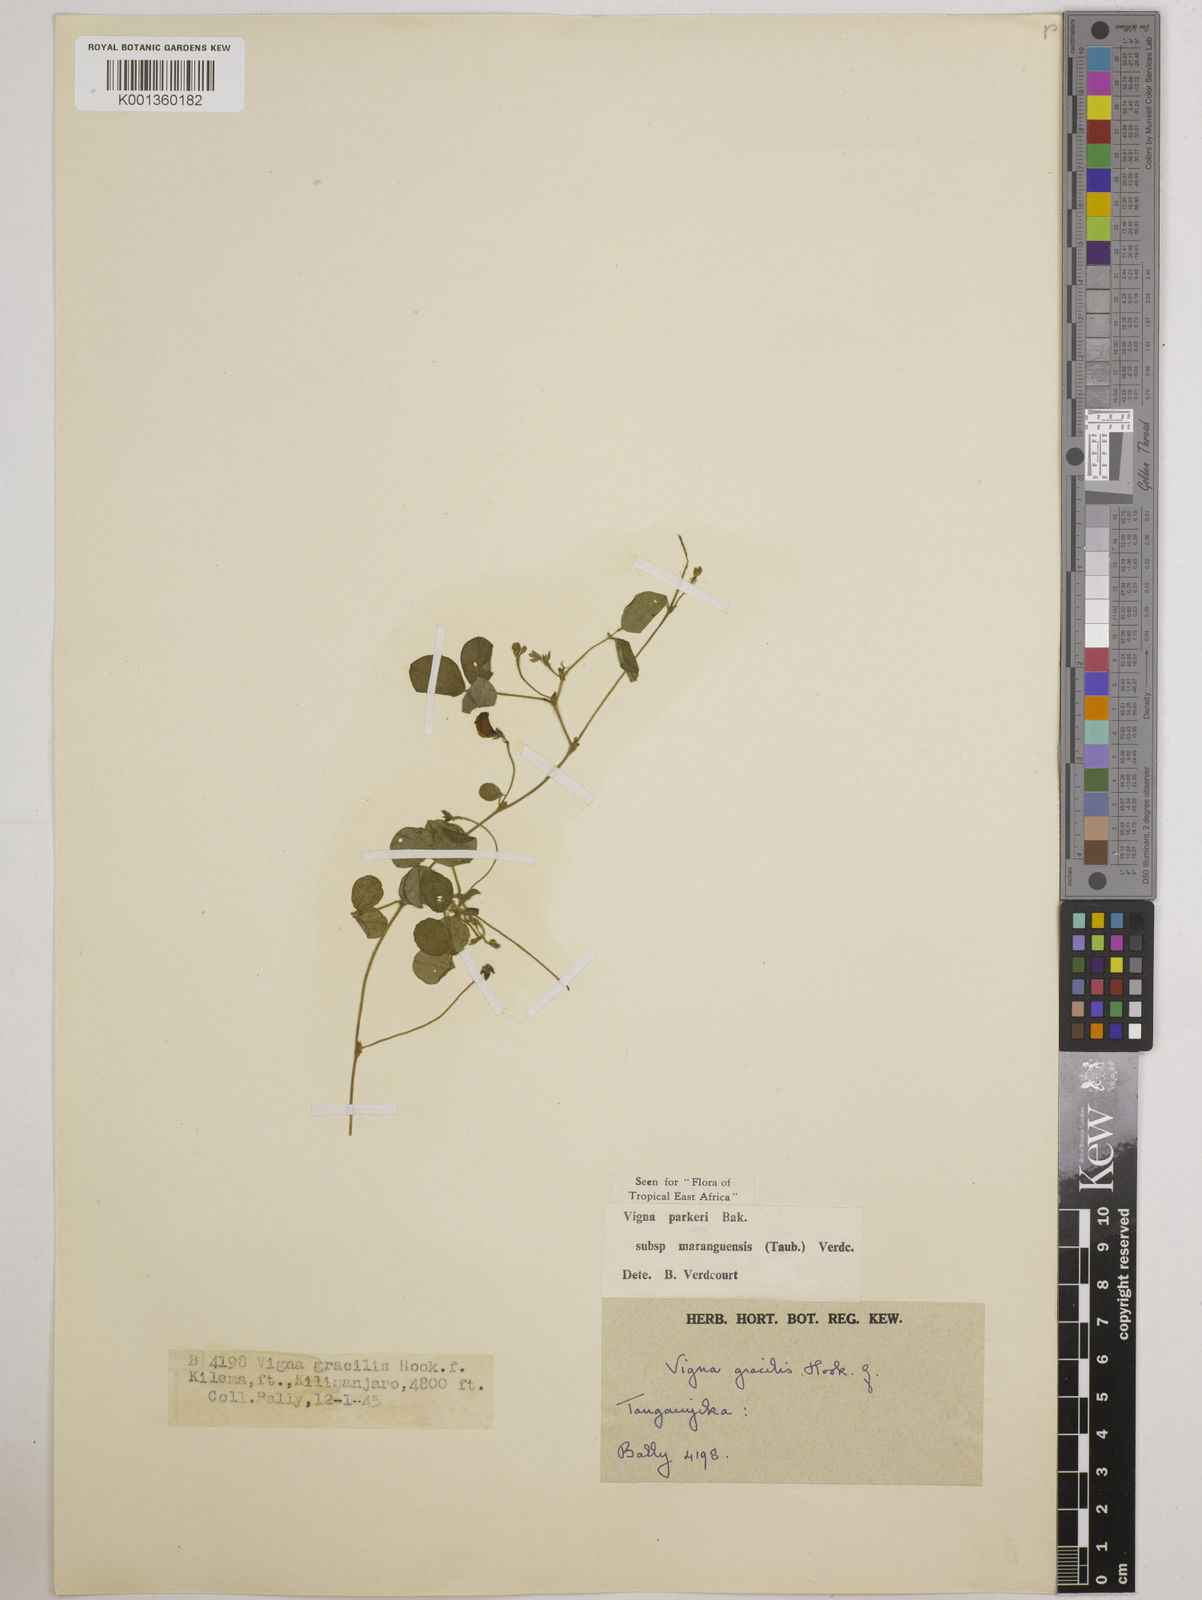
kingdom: Plantae
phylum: Tracheophyta
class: Magnoliopsida
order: Fabales
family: Fabaceae
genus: Vigna
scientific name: Vigna
